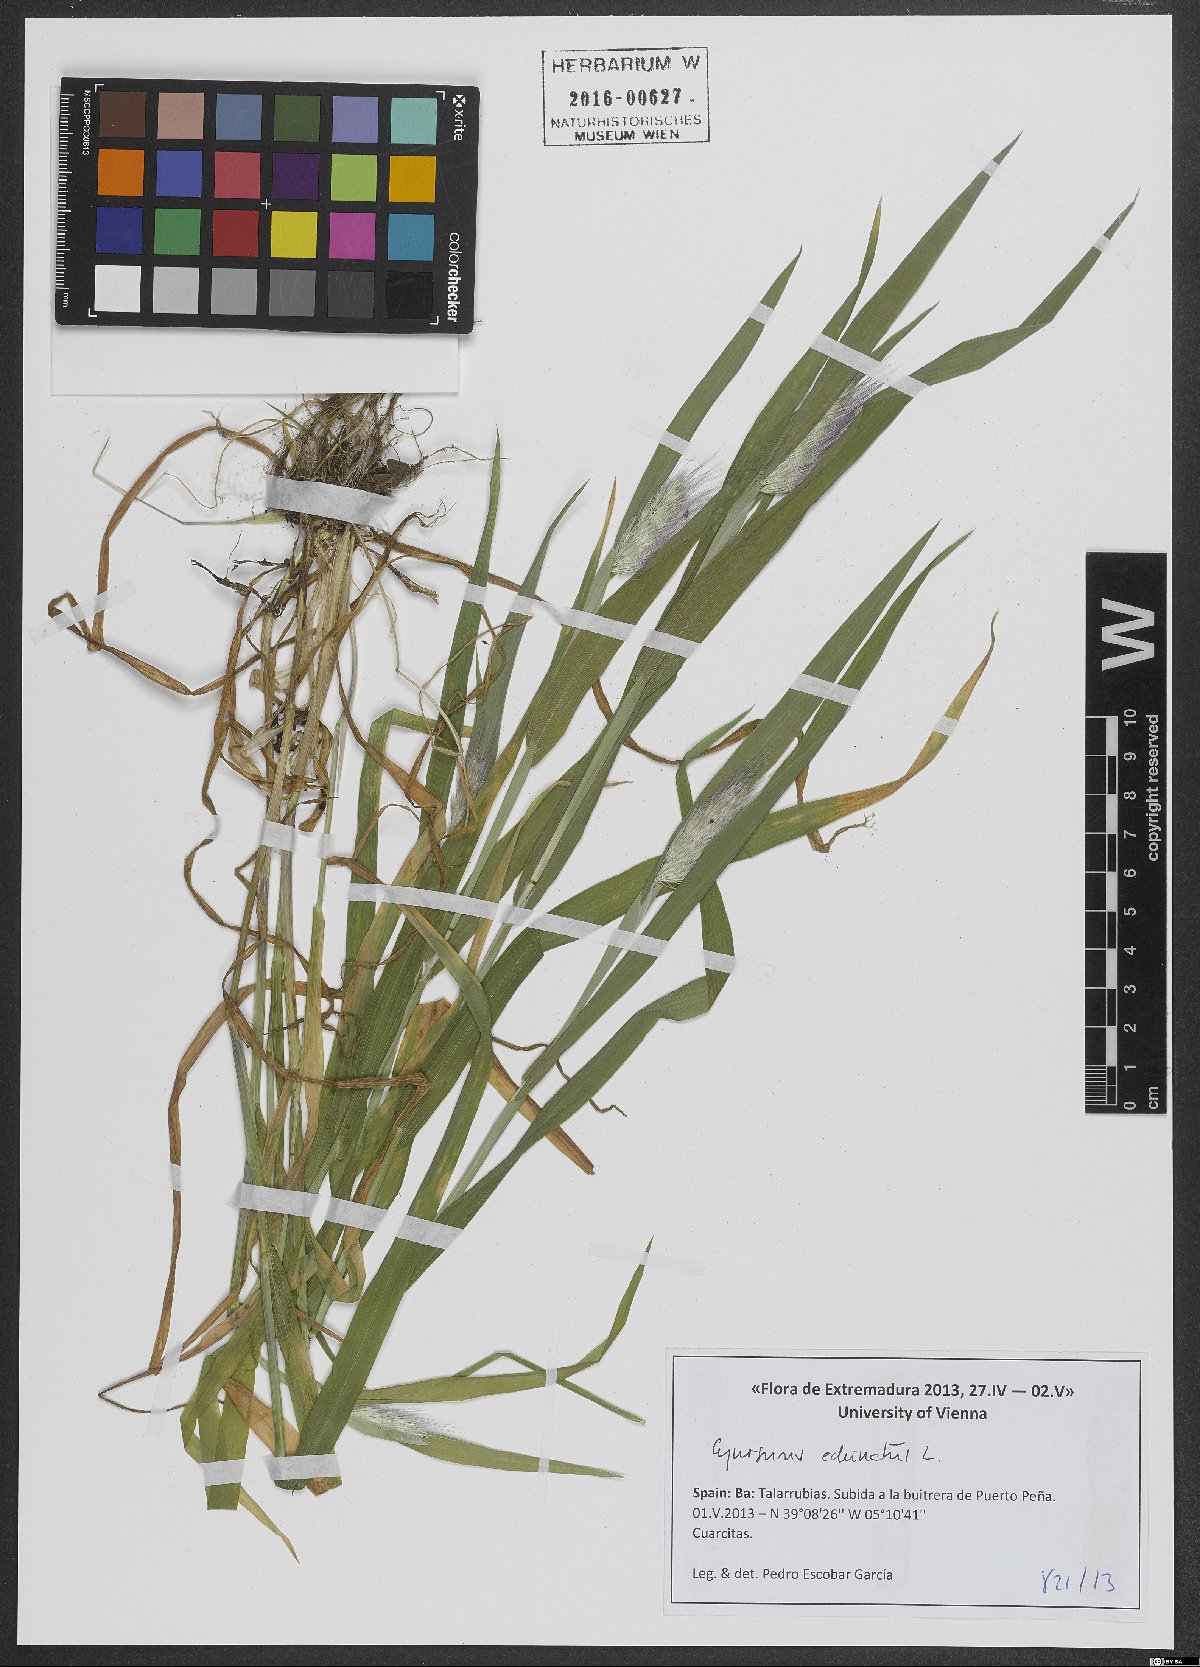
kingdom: Plantae
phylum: Tracheophyta
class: Liliopsida
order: Poales
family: Poaceae
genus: Cynosurus
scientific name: Cynosurus echinatus
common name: Rough dog's-tail
